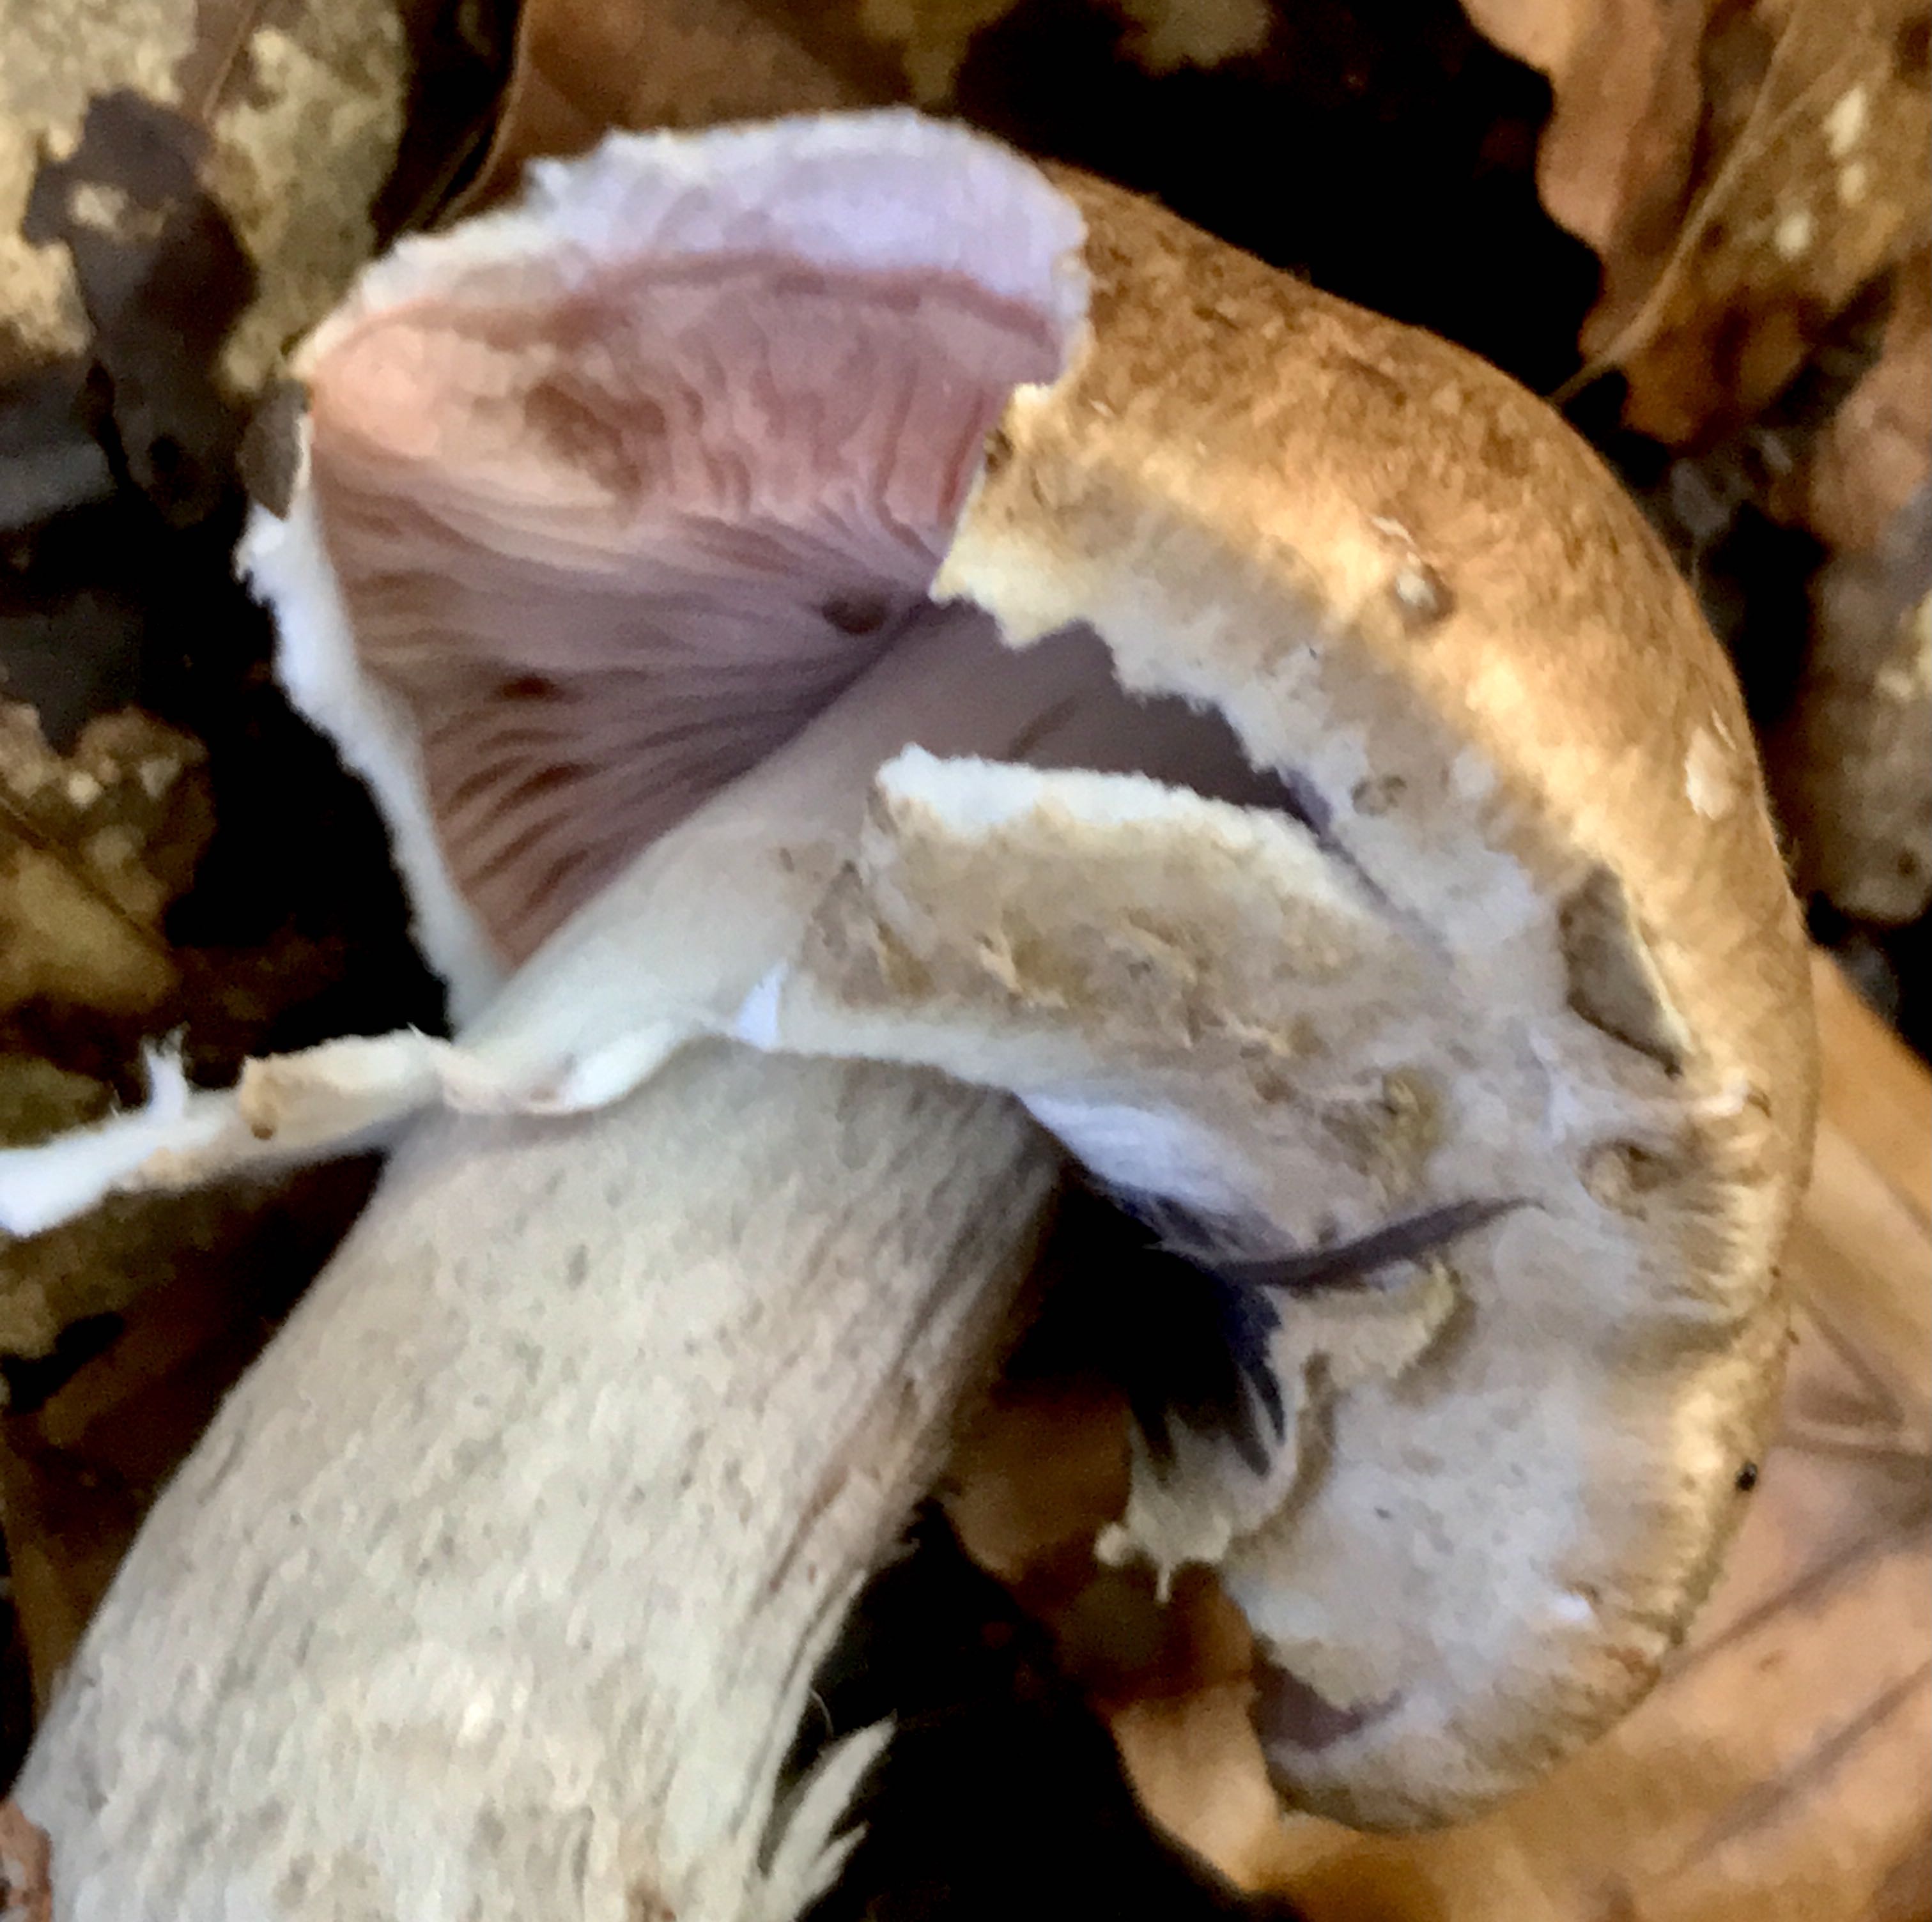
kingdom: Fungi
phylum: Basidiomycota
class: Agaricomycetes
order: Agaricales
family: Agaricaceae
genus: Agaricus
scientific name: Agaricus impudicus
